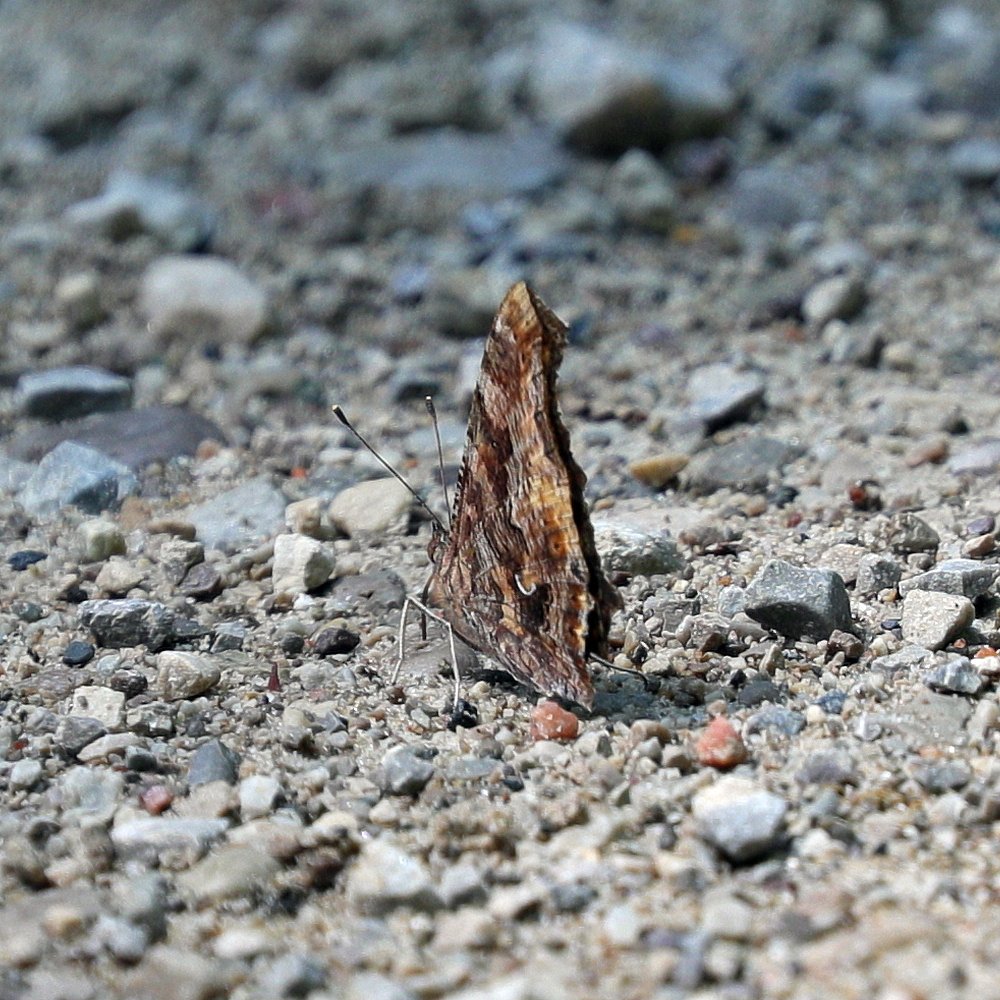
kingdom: Animalia
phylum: Arthropoda
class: Insecta
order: Lepidoptera
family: Nymphalidae
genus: Polygonia
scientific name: Polygonia comma
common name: Eastern Comma
